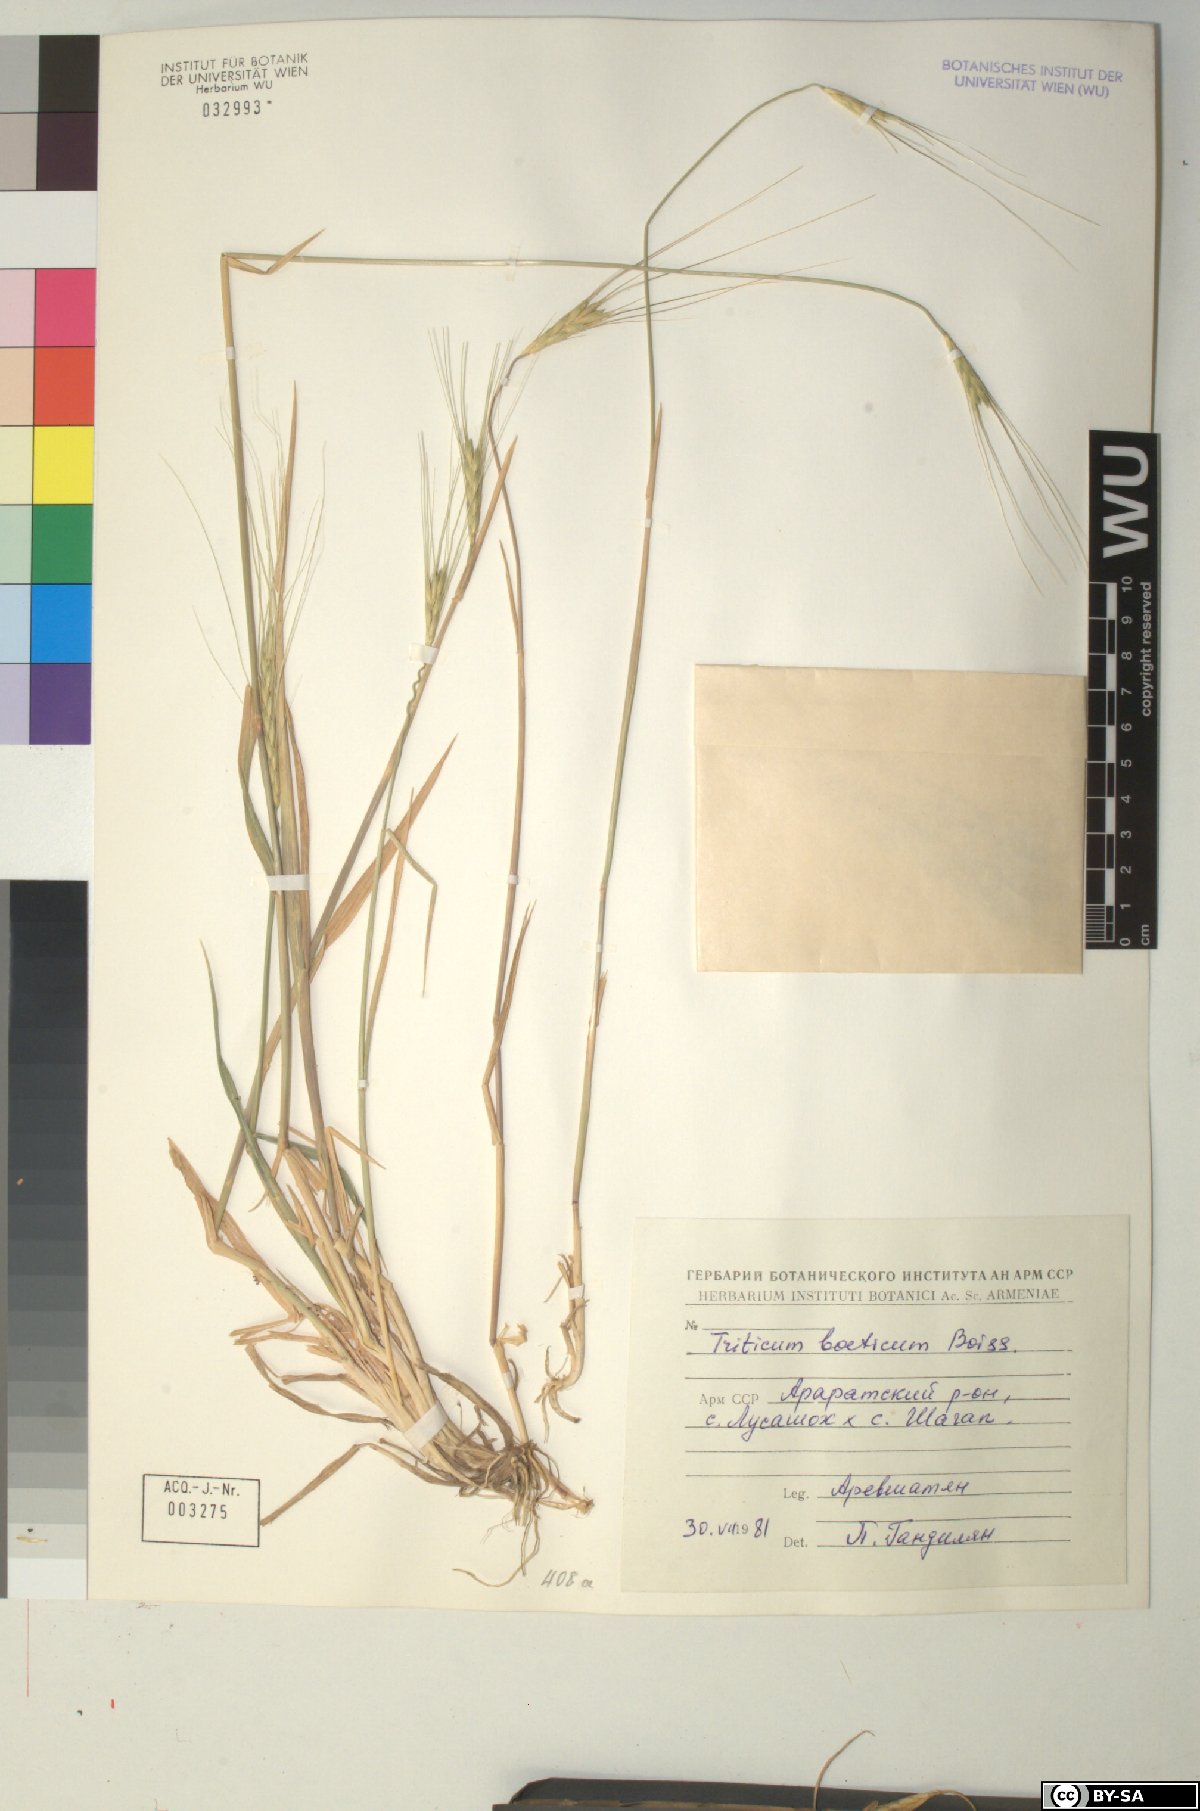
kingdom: Plantae
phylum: Tracheophyta
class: Liliopsida
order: Poales
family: Poaceae
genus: Triticum
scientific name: Triticum monococcum
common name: Einkorn
